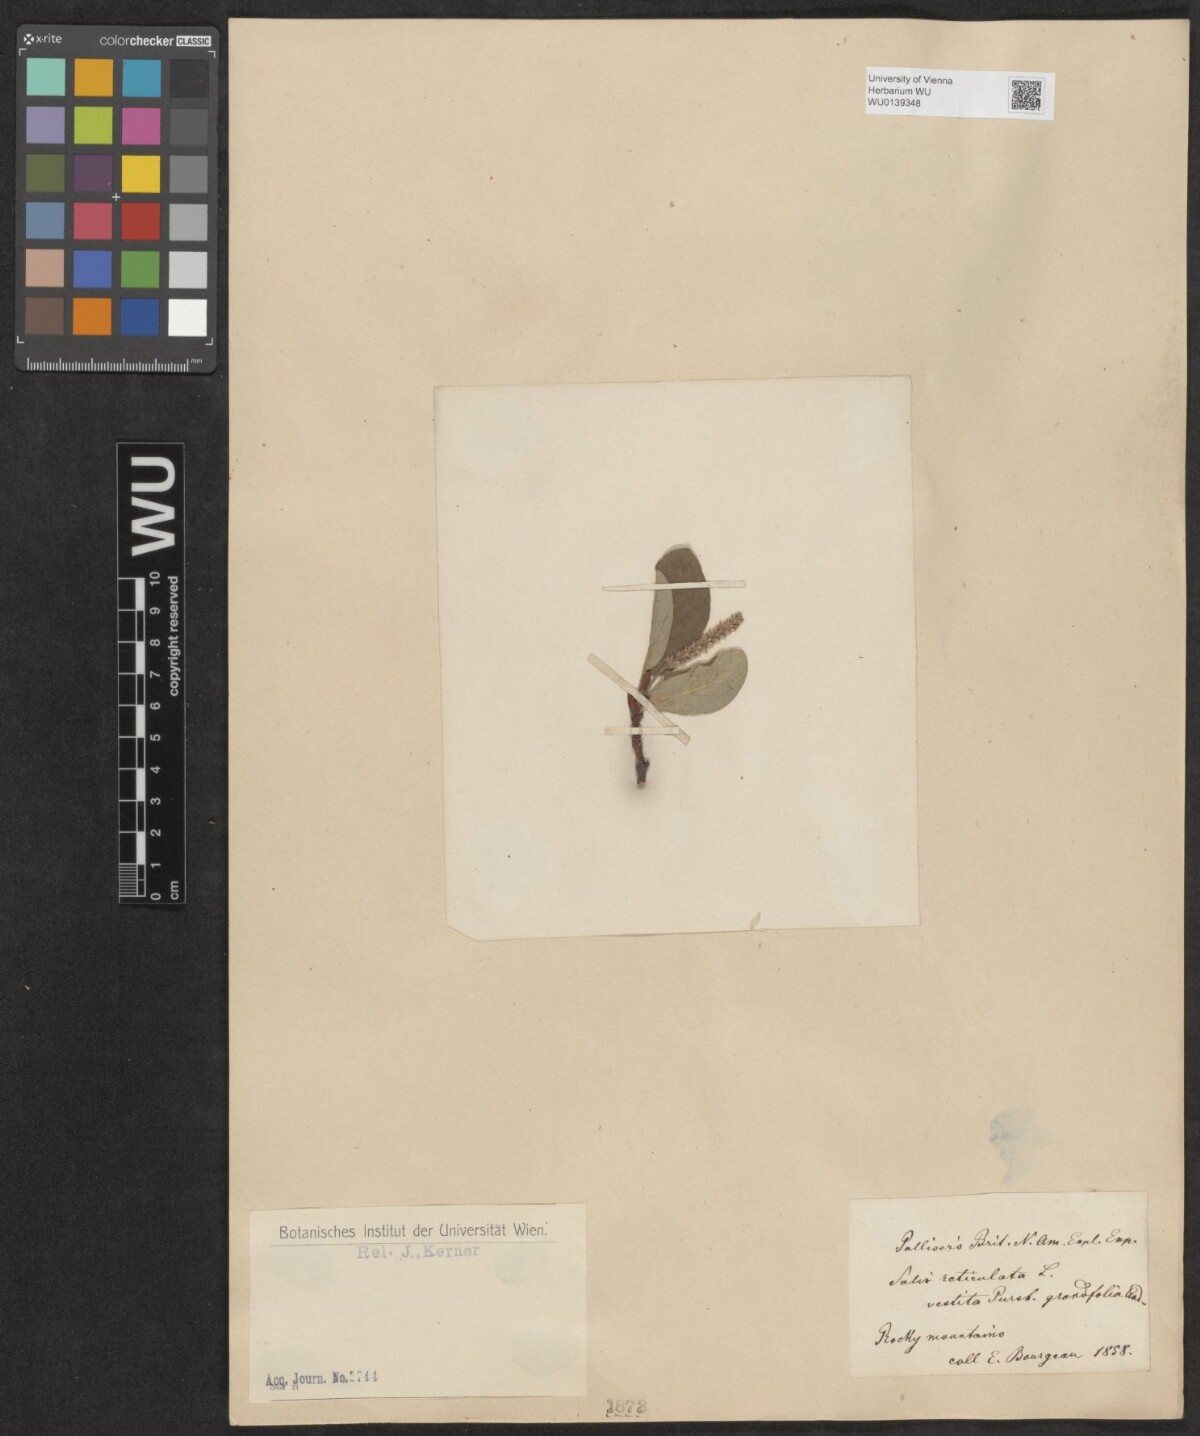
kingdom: Plantae
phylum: Tracheophyta
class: Magnoliopsida
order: Malpighiales
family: Salicaceae
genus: Salix
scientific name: Salix reticulata
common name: Net-leaved willow
